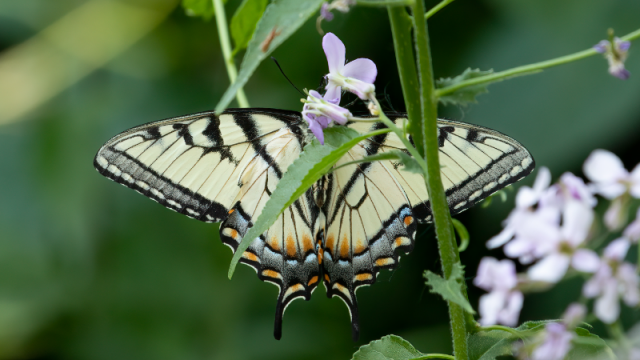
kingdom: Animalia
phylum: Arthropoda
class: Insecta
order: Lepidoptera
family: Papilionidae
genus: Pterourus
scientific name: Pterourus glaucus
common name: Eastern Tiger Swallowtail
